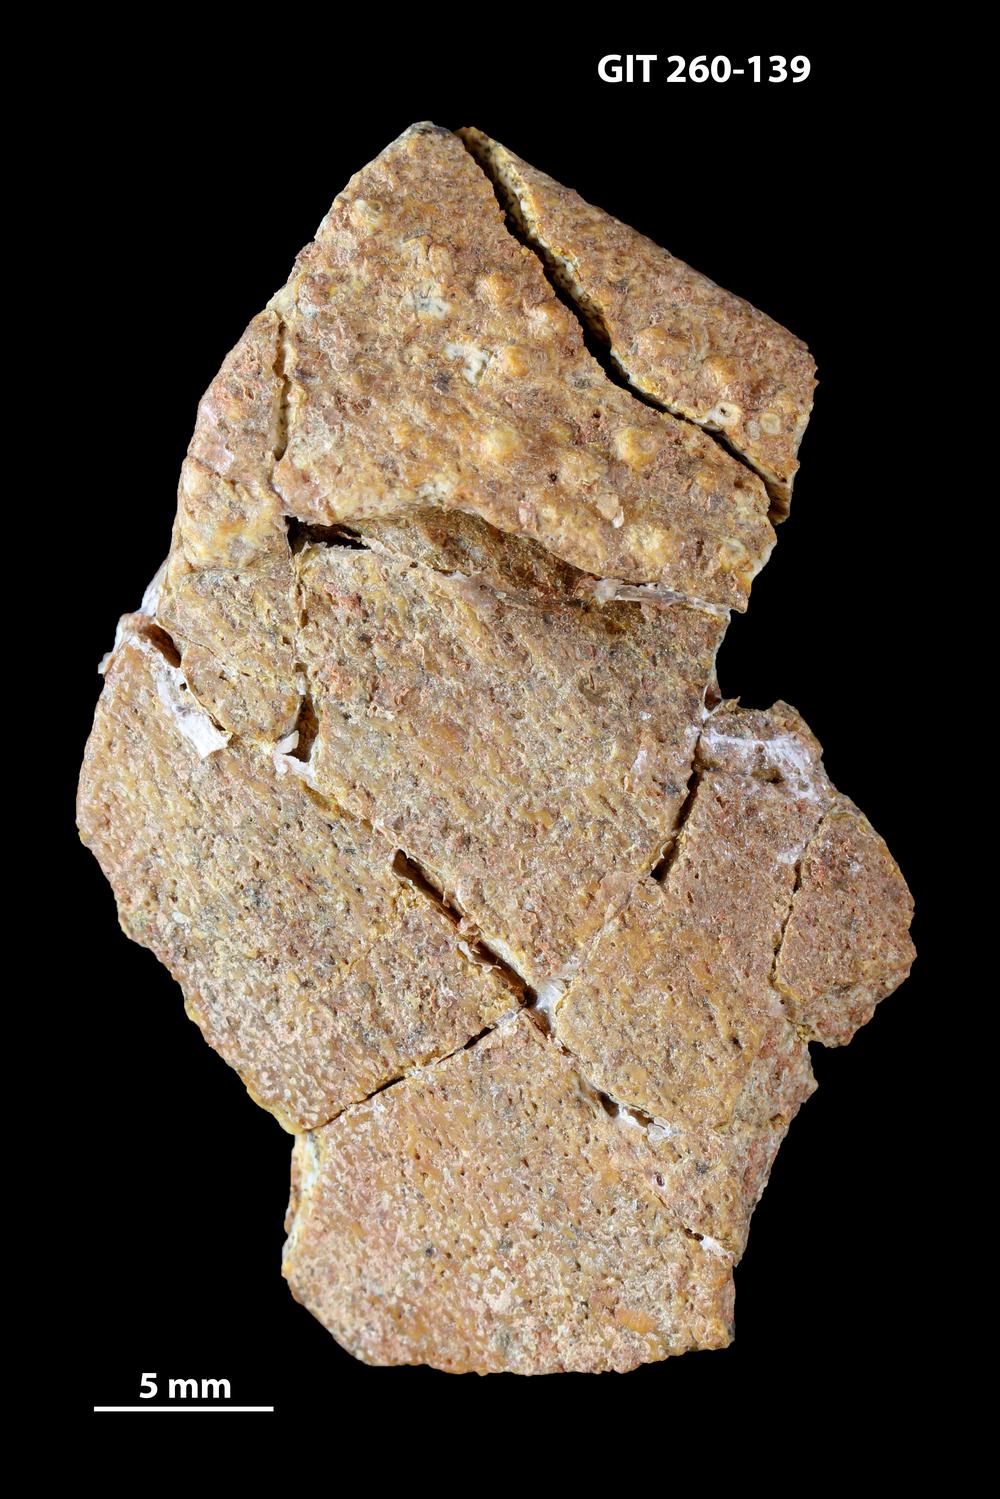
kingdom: Animalia
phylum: Chordata
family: Homostiidae
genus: Homostius
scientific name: Homostius
